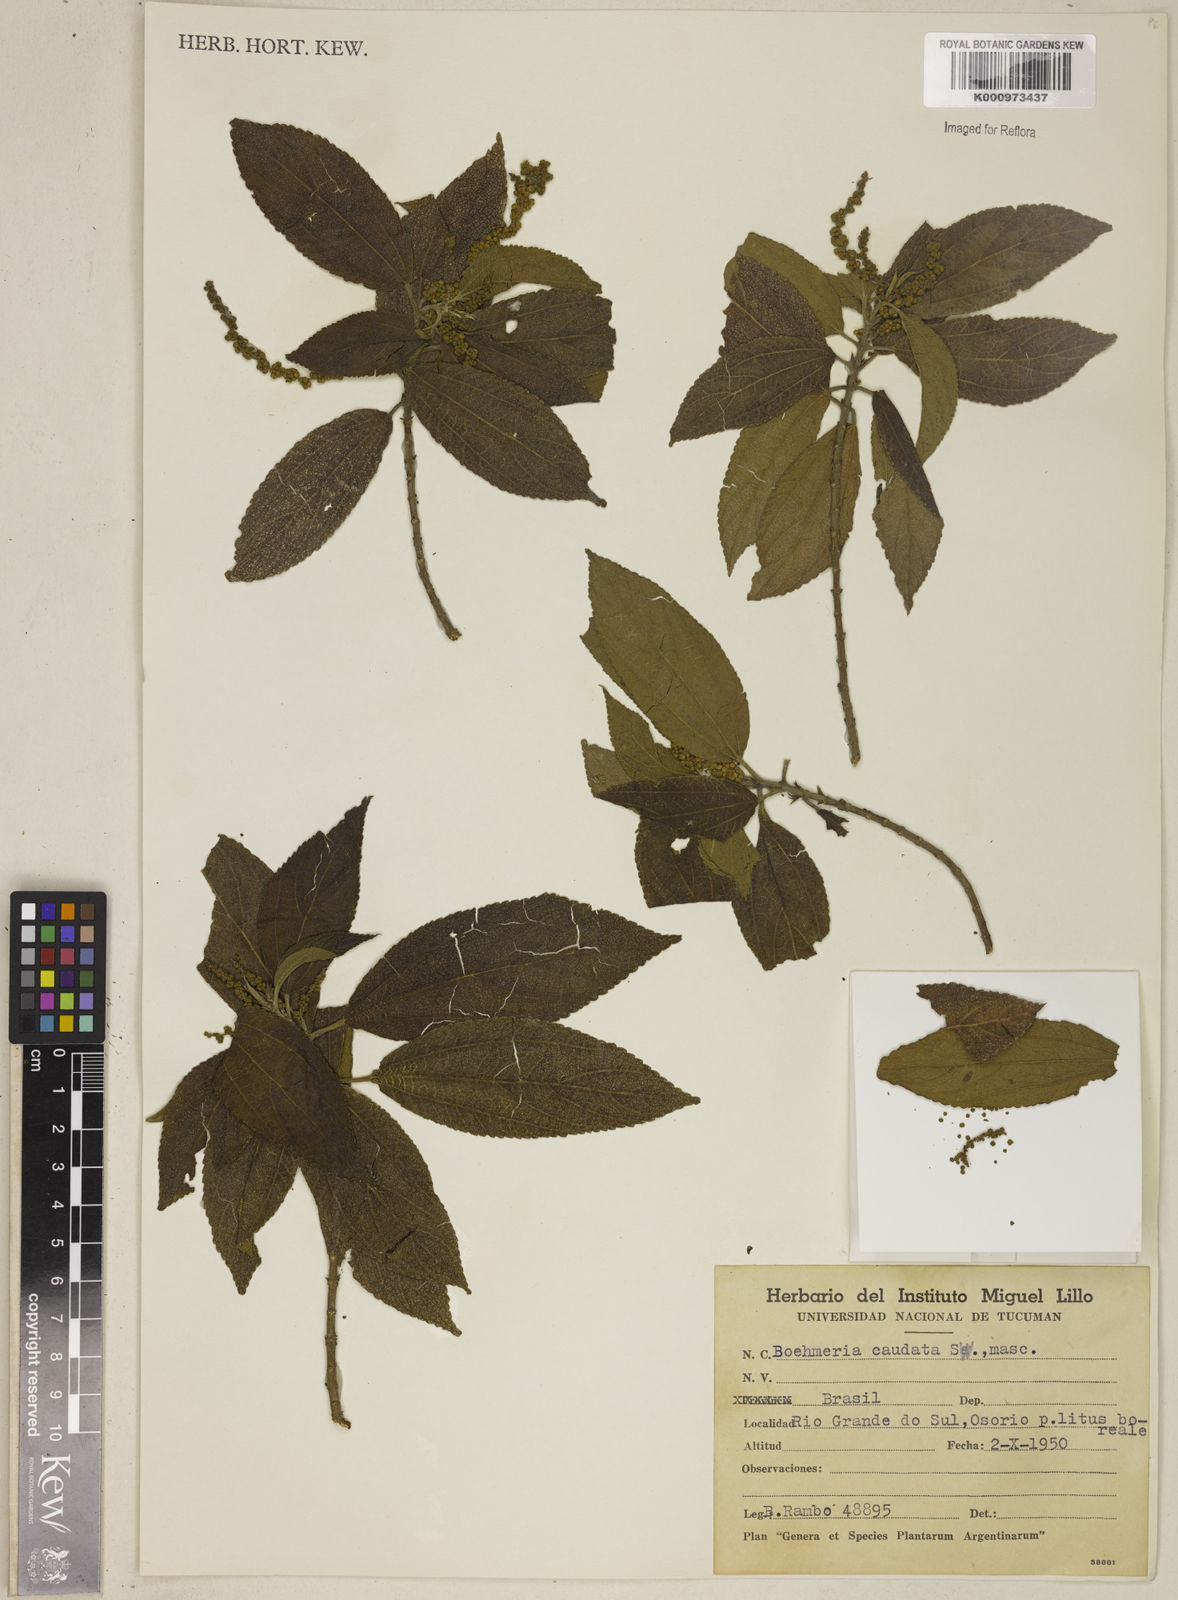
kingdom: Plantae
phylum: Tracheophyta
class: Magnoliopsida
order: Rosales
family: Urticaceae
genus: Boehmeria
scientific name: Boehmeria caudata
